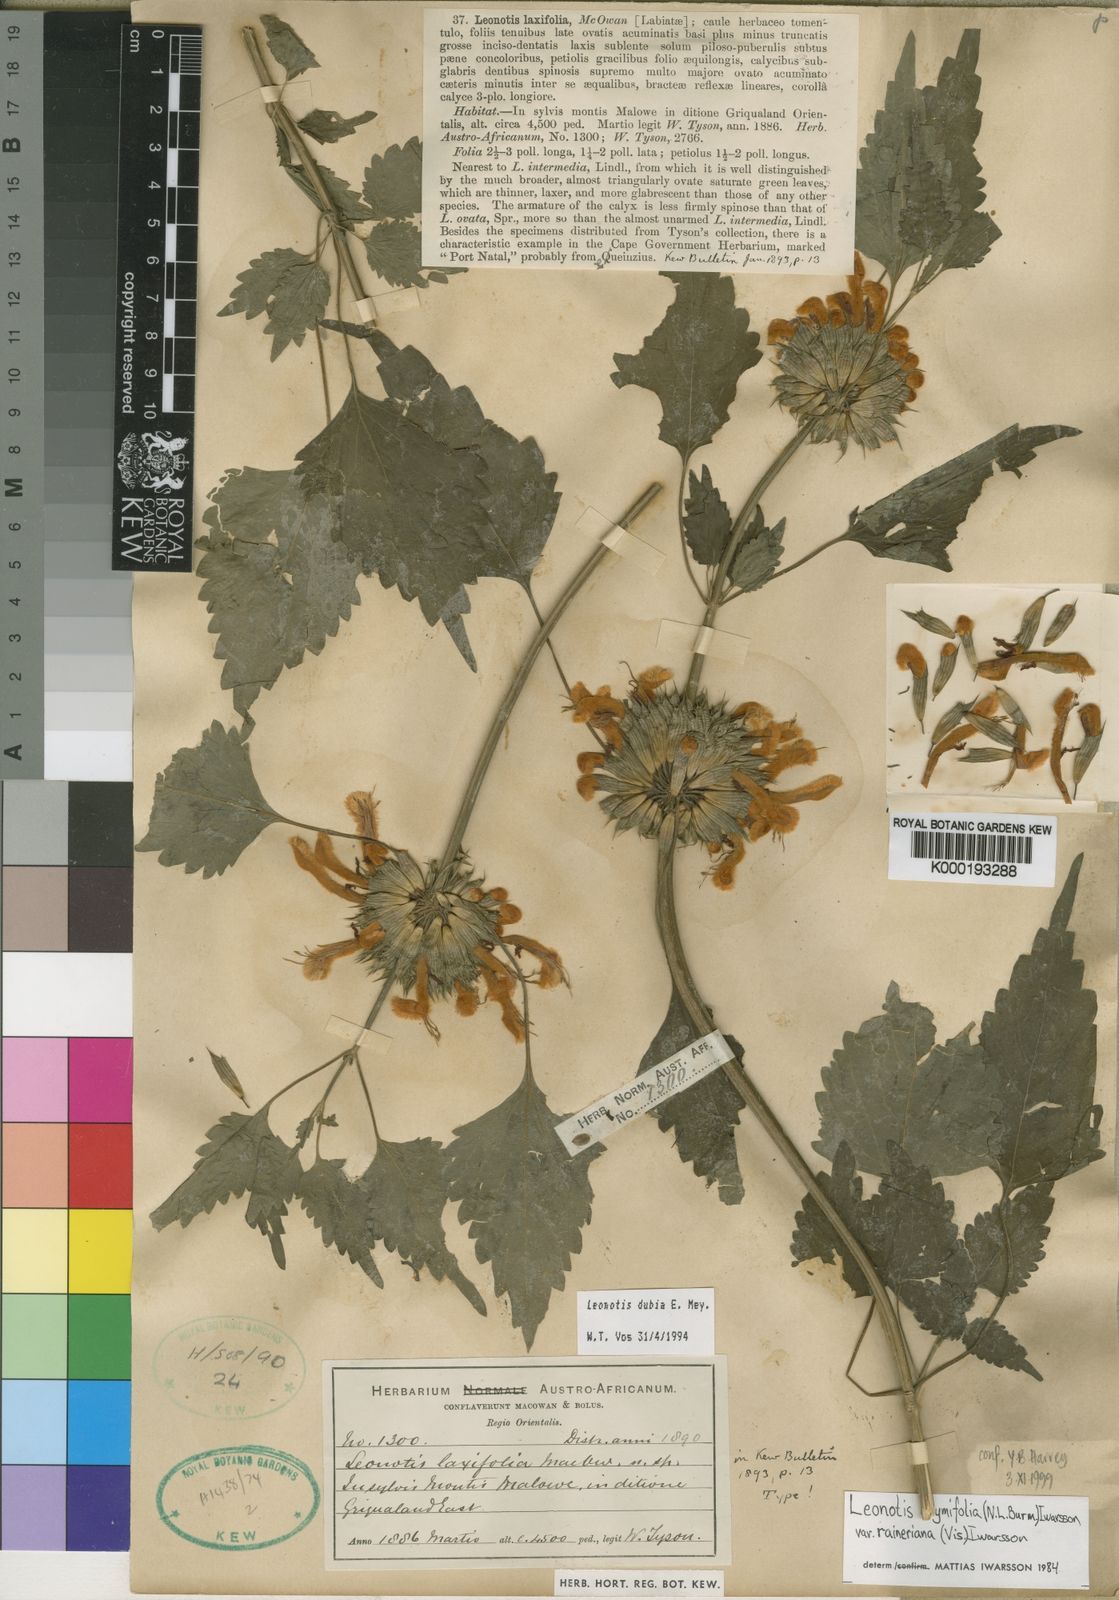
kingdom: Plantae
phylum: Tracheophyta
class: Magnoliopsida
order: Lamiales
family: Lamiaceae
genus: Leonotis
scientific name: Leonotis ocymifolia
